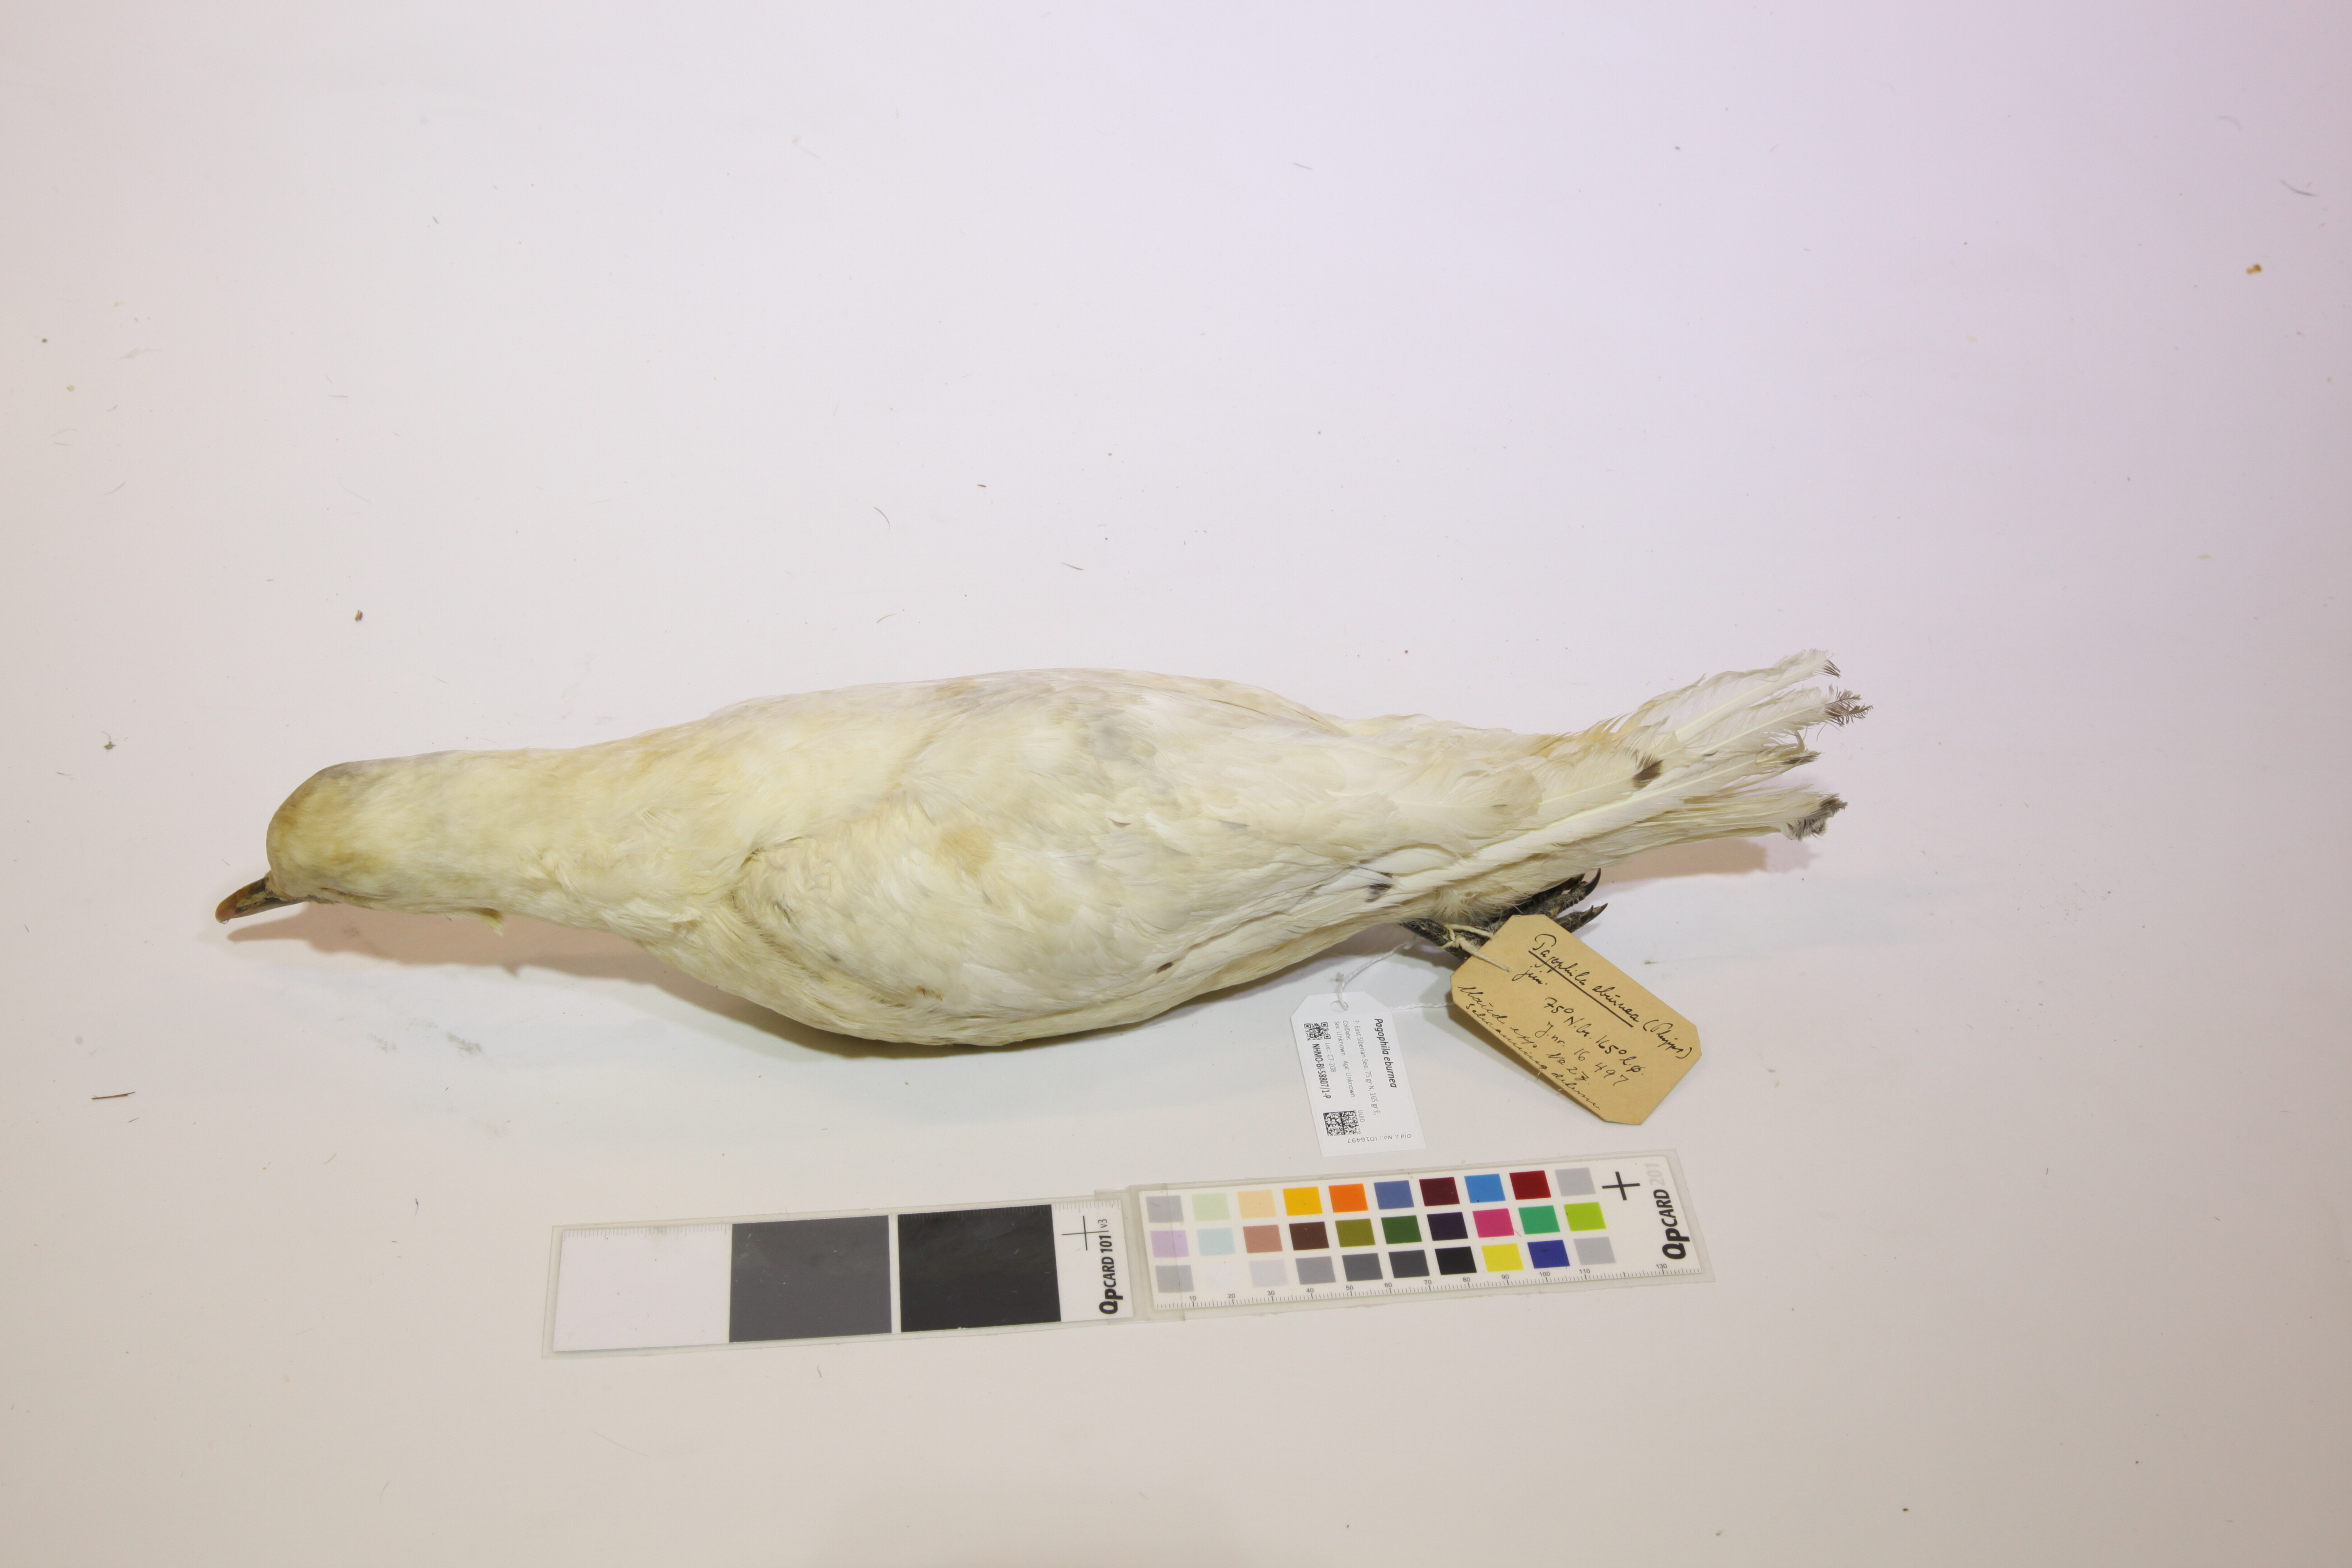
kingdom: Animalia
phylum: Chordata
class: Aves
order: Charadriiformes
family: Laridae
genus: Pagophila
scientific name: Pagophila eburnea
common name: Ivory gull
